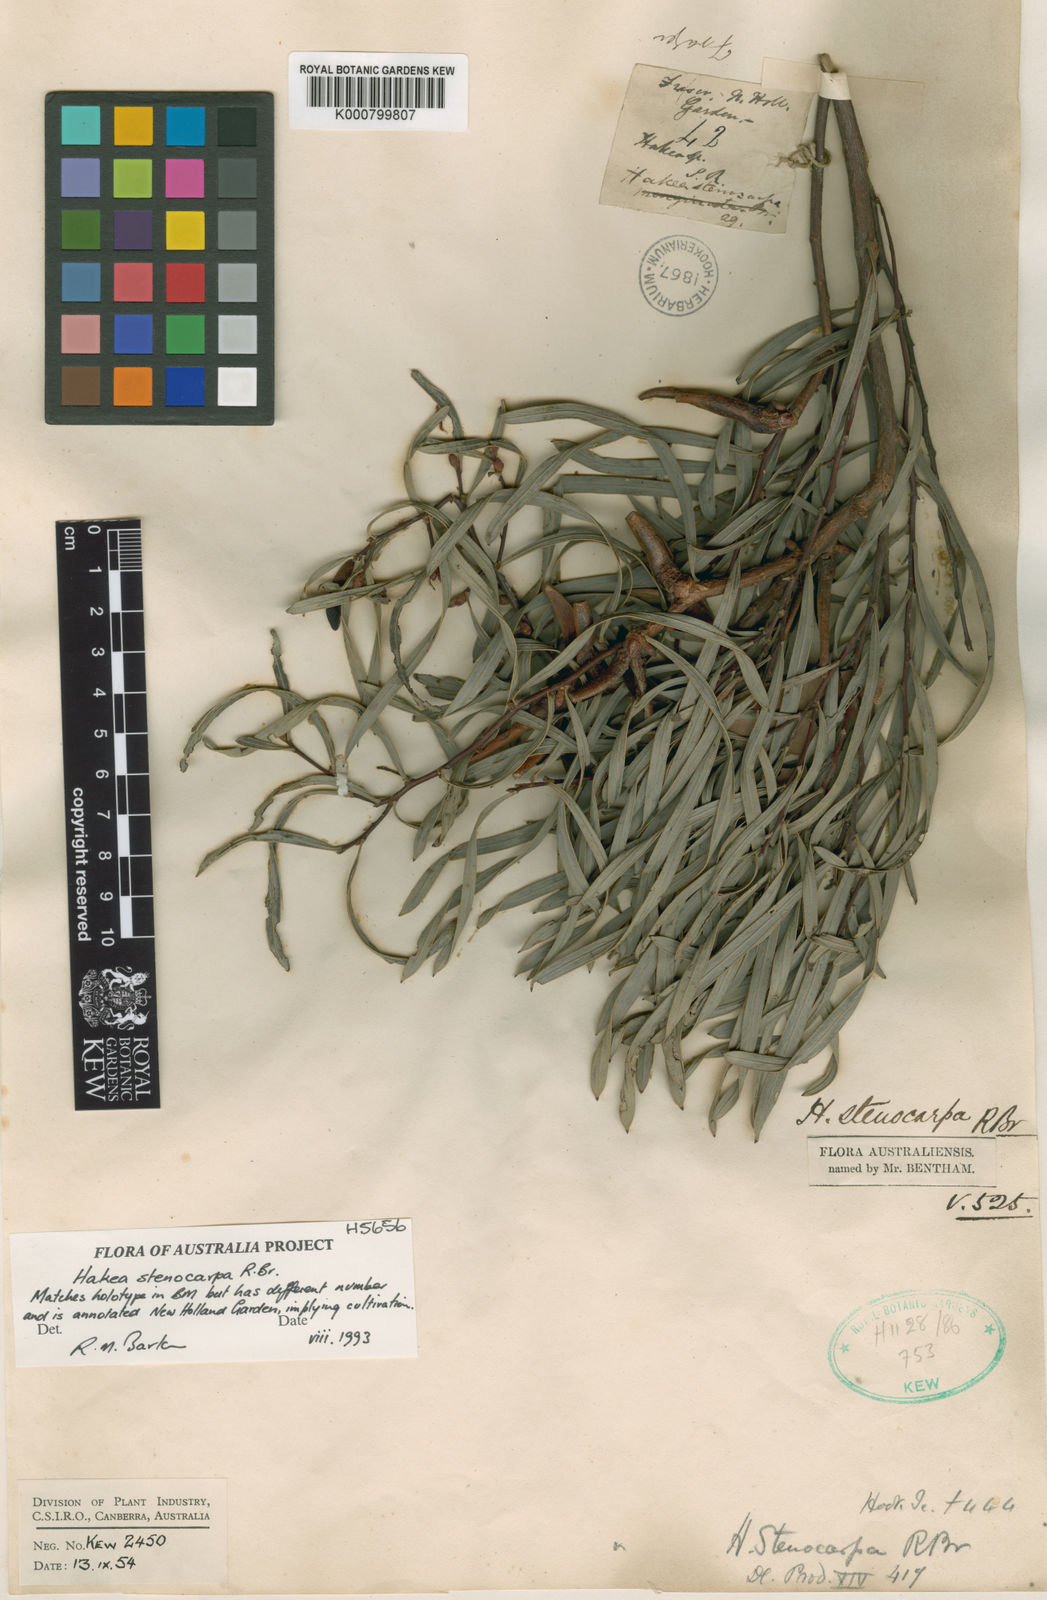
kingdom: Plantae
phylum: Tracheophyta
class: Magnoliopsida
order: Proteales
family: Proteaceae
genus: Hakea
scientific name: Hakea stenocarpa
